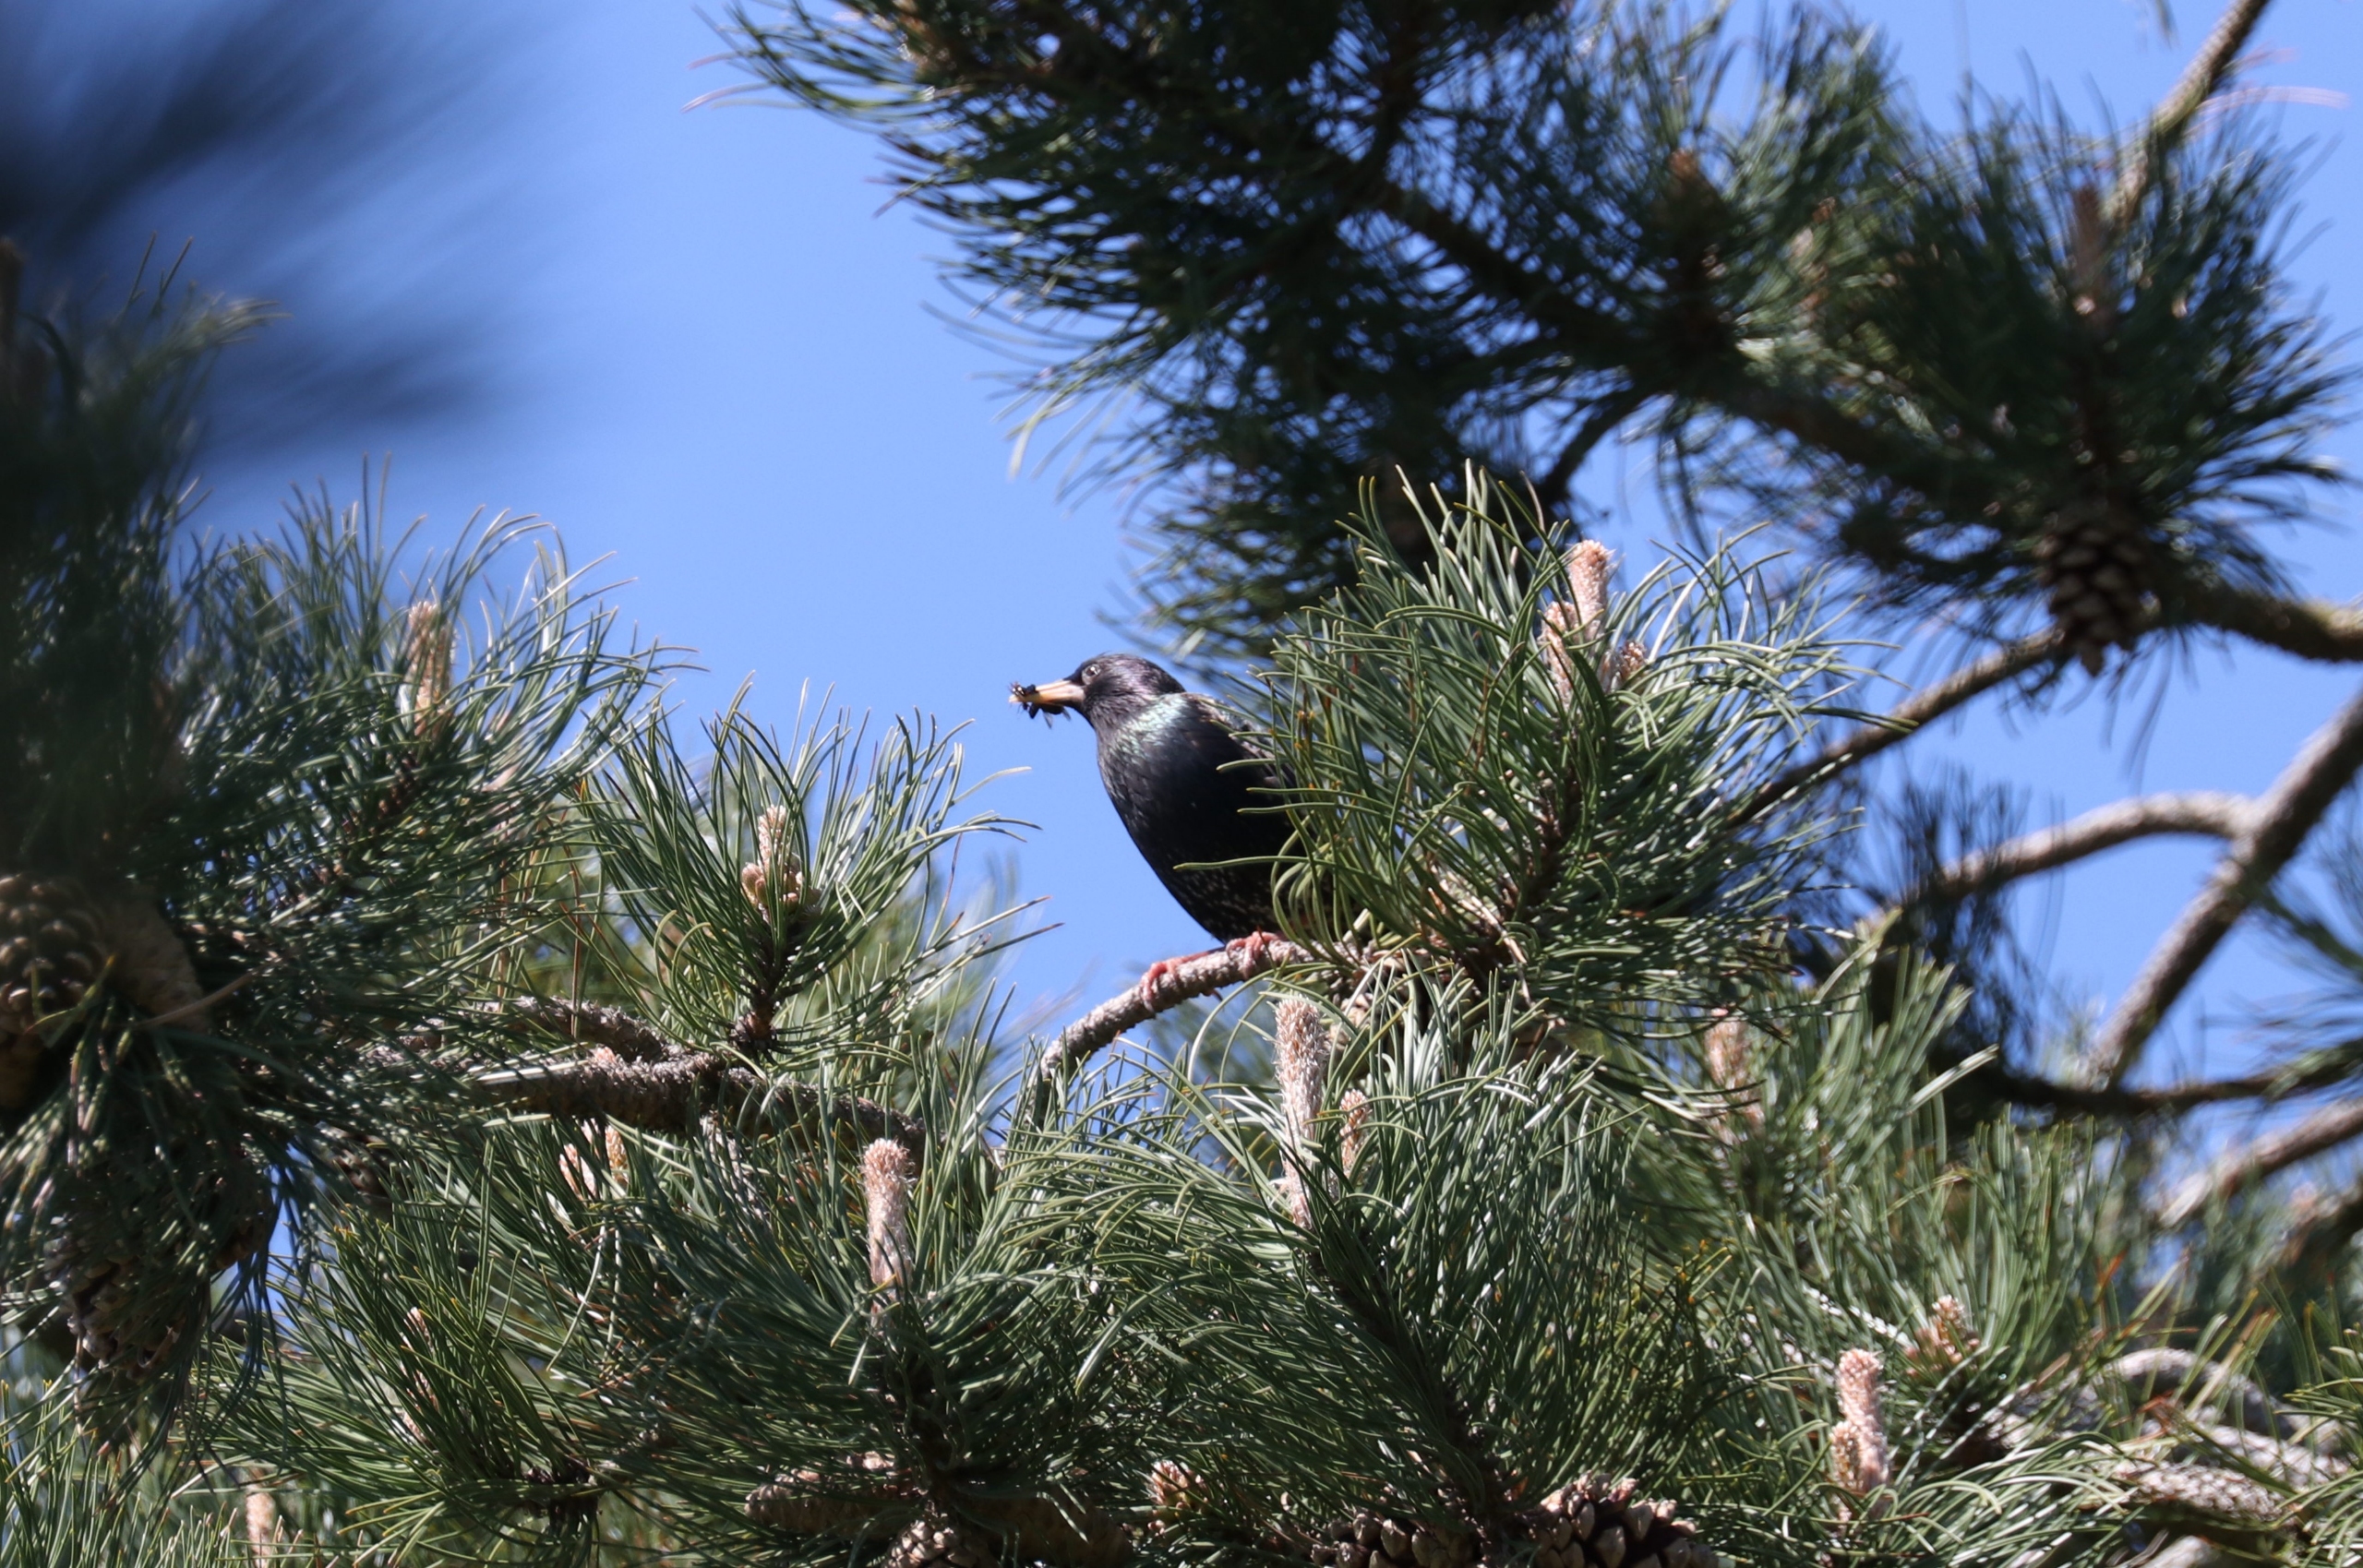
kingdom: Animalia
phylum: Chordata
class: Aves
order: Passeriformes
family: Sturnidae
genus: Sturnus
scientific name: Sturnus vulgaris
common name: Stær
